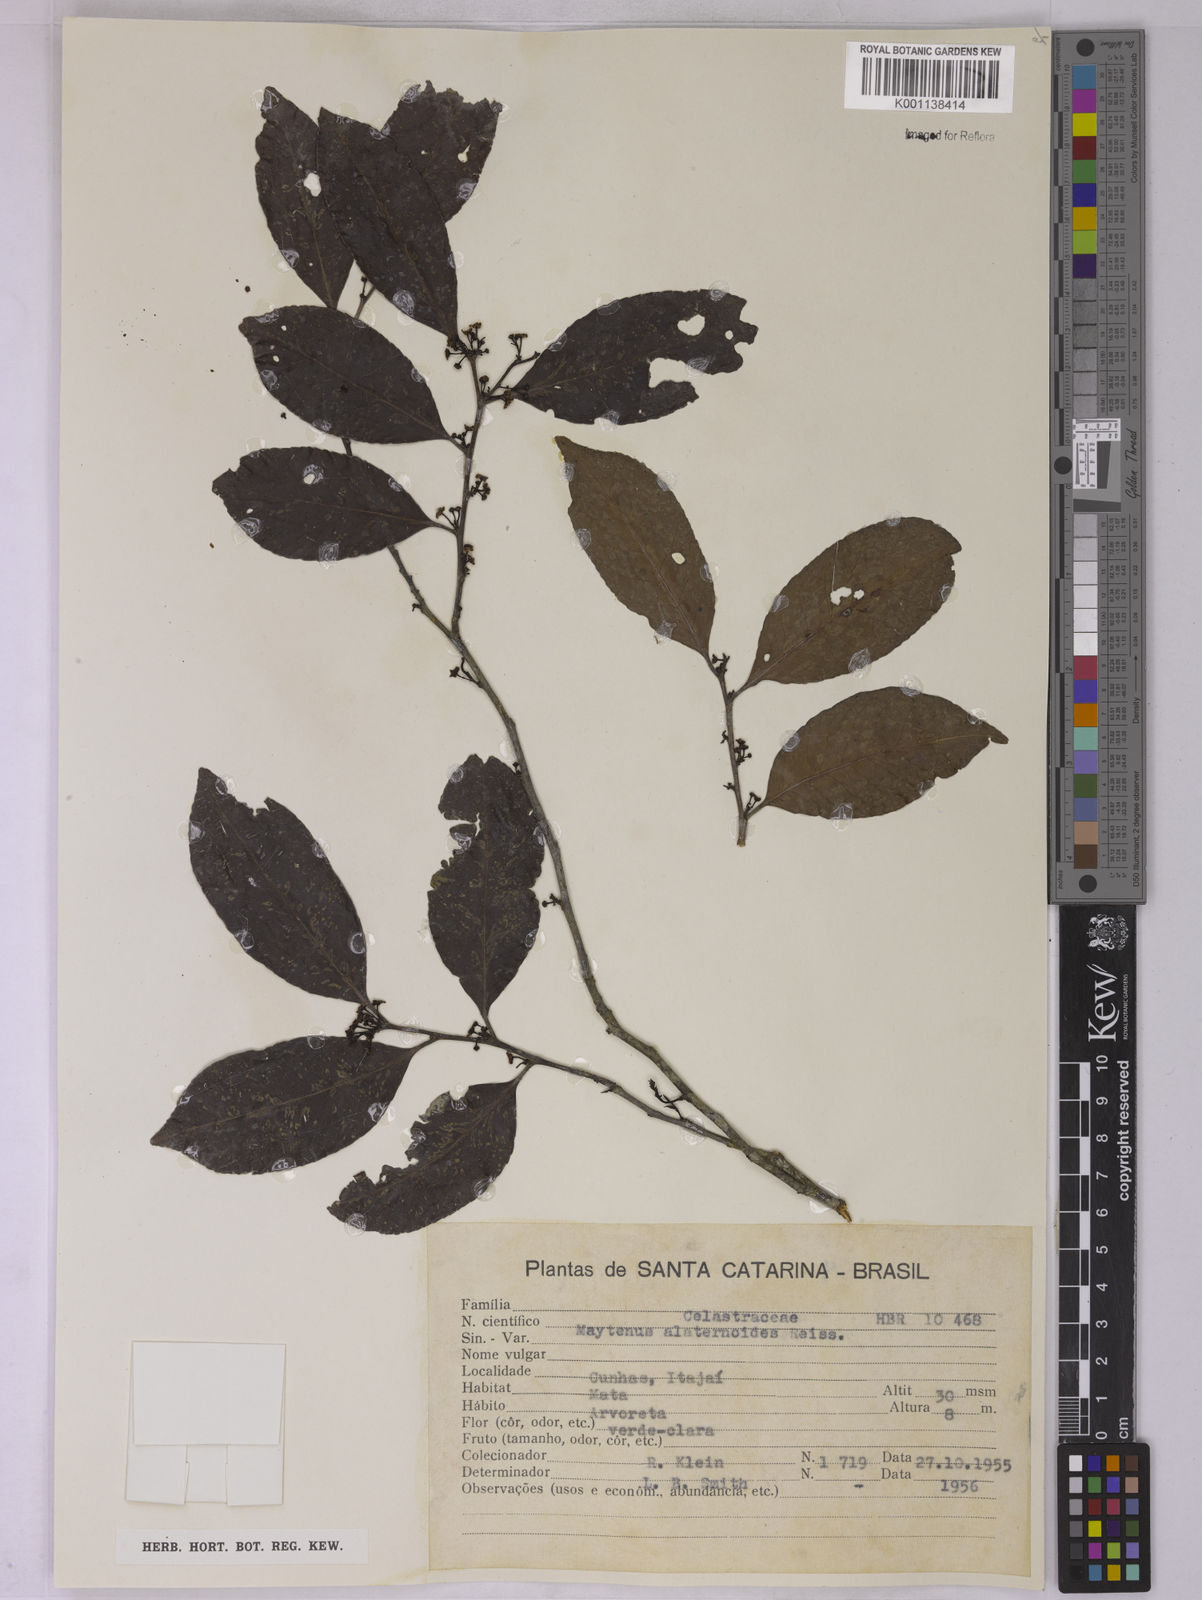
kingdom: Plantae
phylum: Tracheophyta
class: Magnoliopsida
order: Celastrales
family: Celastraceae
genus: Maytenus
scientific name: Maytenus alaternoides
